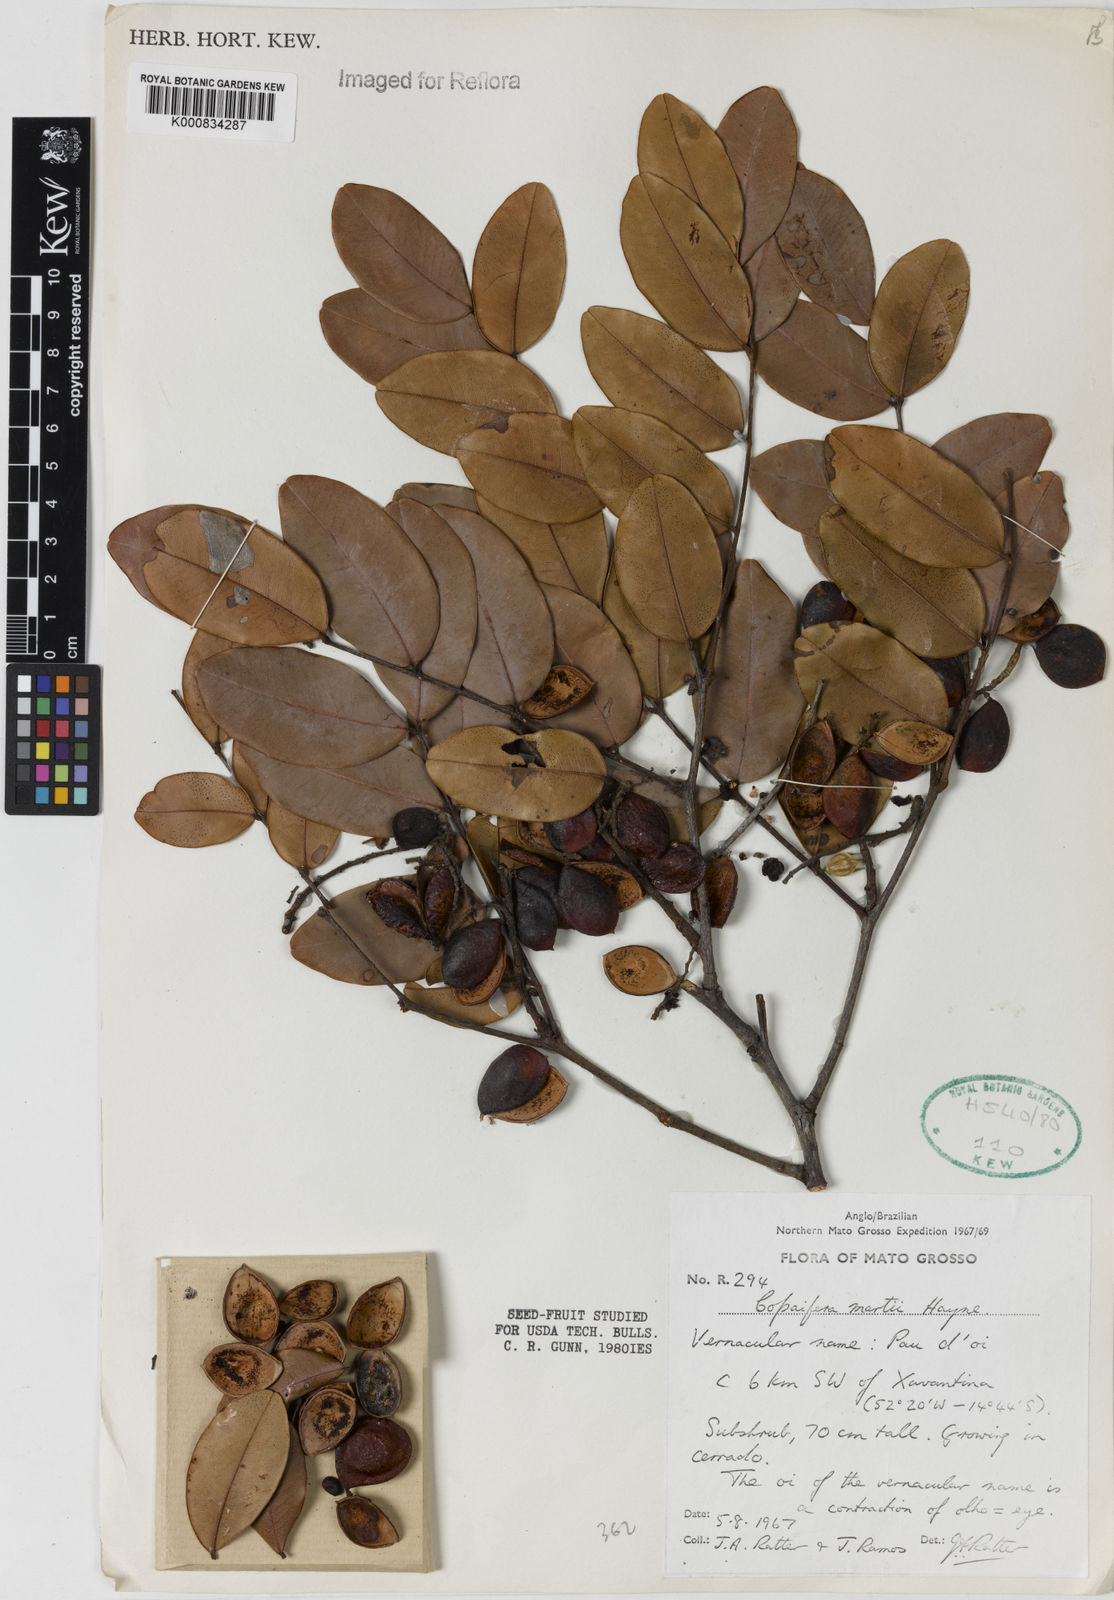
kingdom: Plantae
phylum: Tracheophyta
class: Magnoliopsida
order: Fabales
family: Fabaceae
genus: Copaifera
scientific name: Copaifera martii
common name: Copaiba
